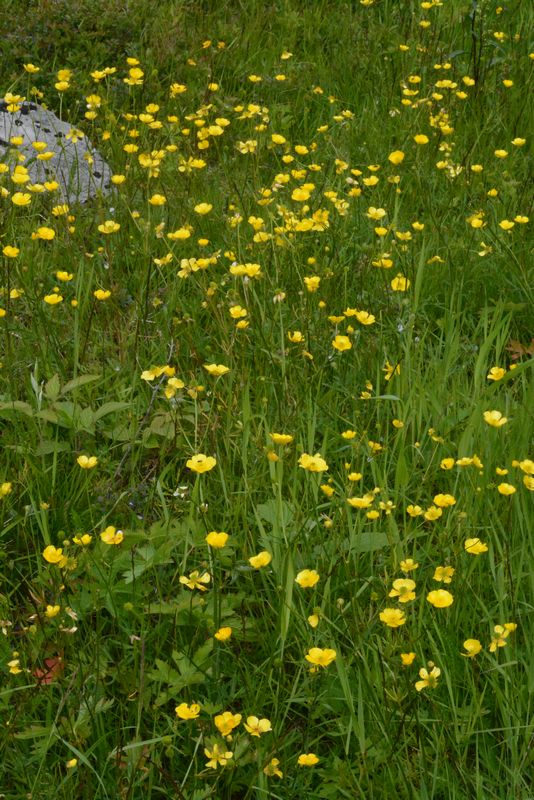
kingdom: Plantae
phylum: Tracheophyta
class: Magnoliopsida
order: Ranunculales
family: Ranunculaceae
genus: Ranunculus
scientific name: Ranunculus polyanthemos
